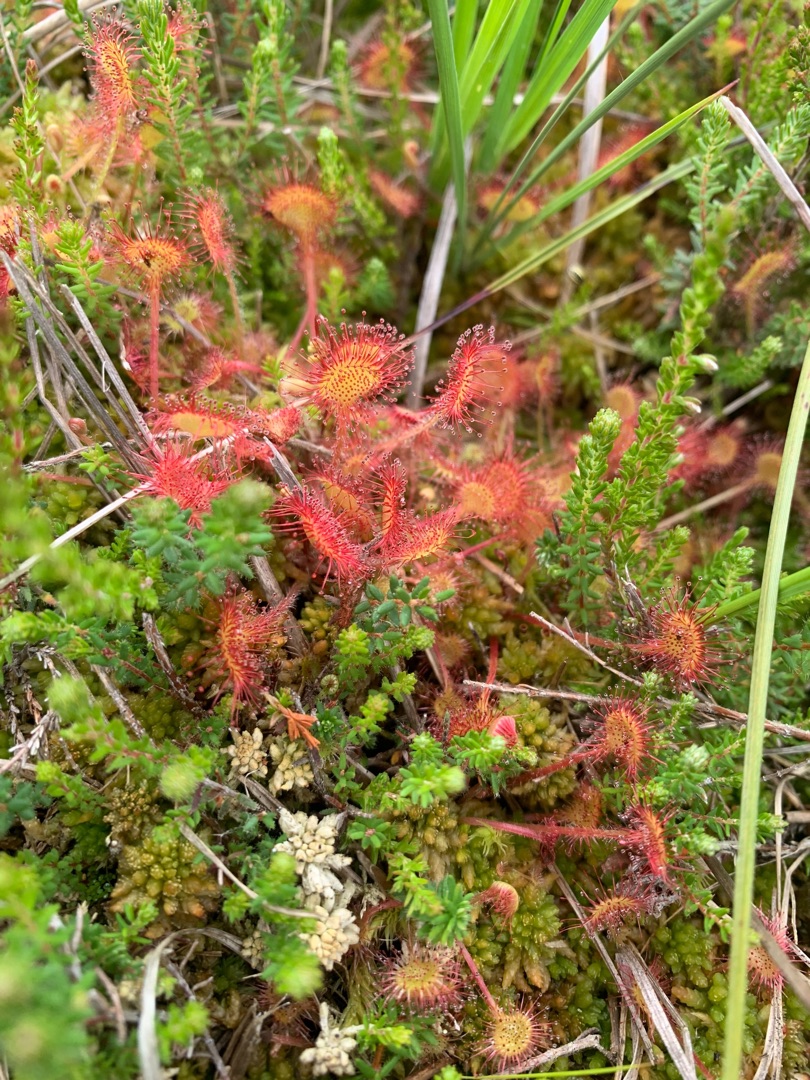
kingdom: Plantae
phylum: Tracheophyta
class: Magnoliopsida
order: Caryophyllales
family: Droseraceae
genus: Drosera
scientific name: Drosera rotundifolia
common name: Rundbladet soldug
